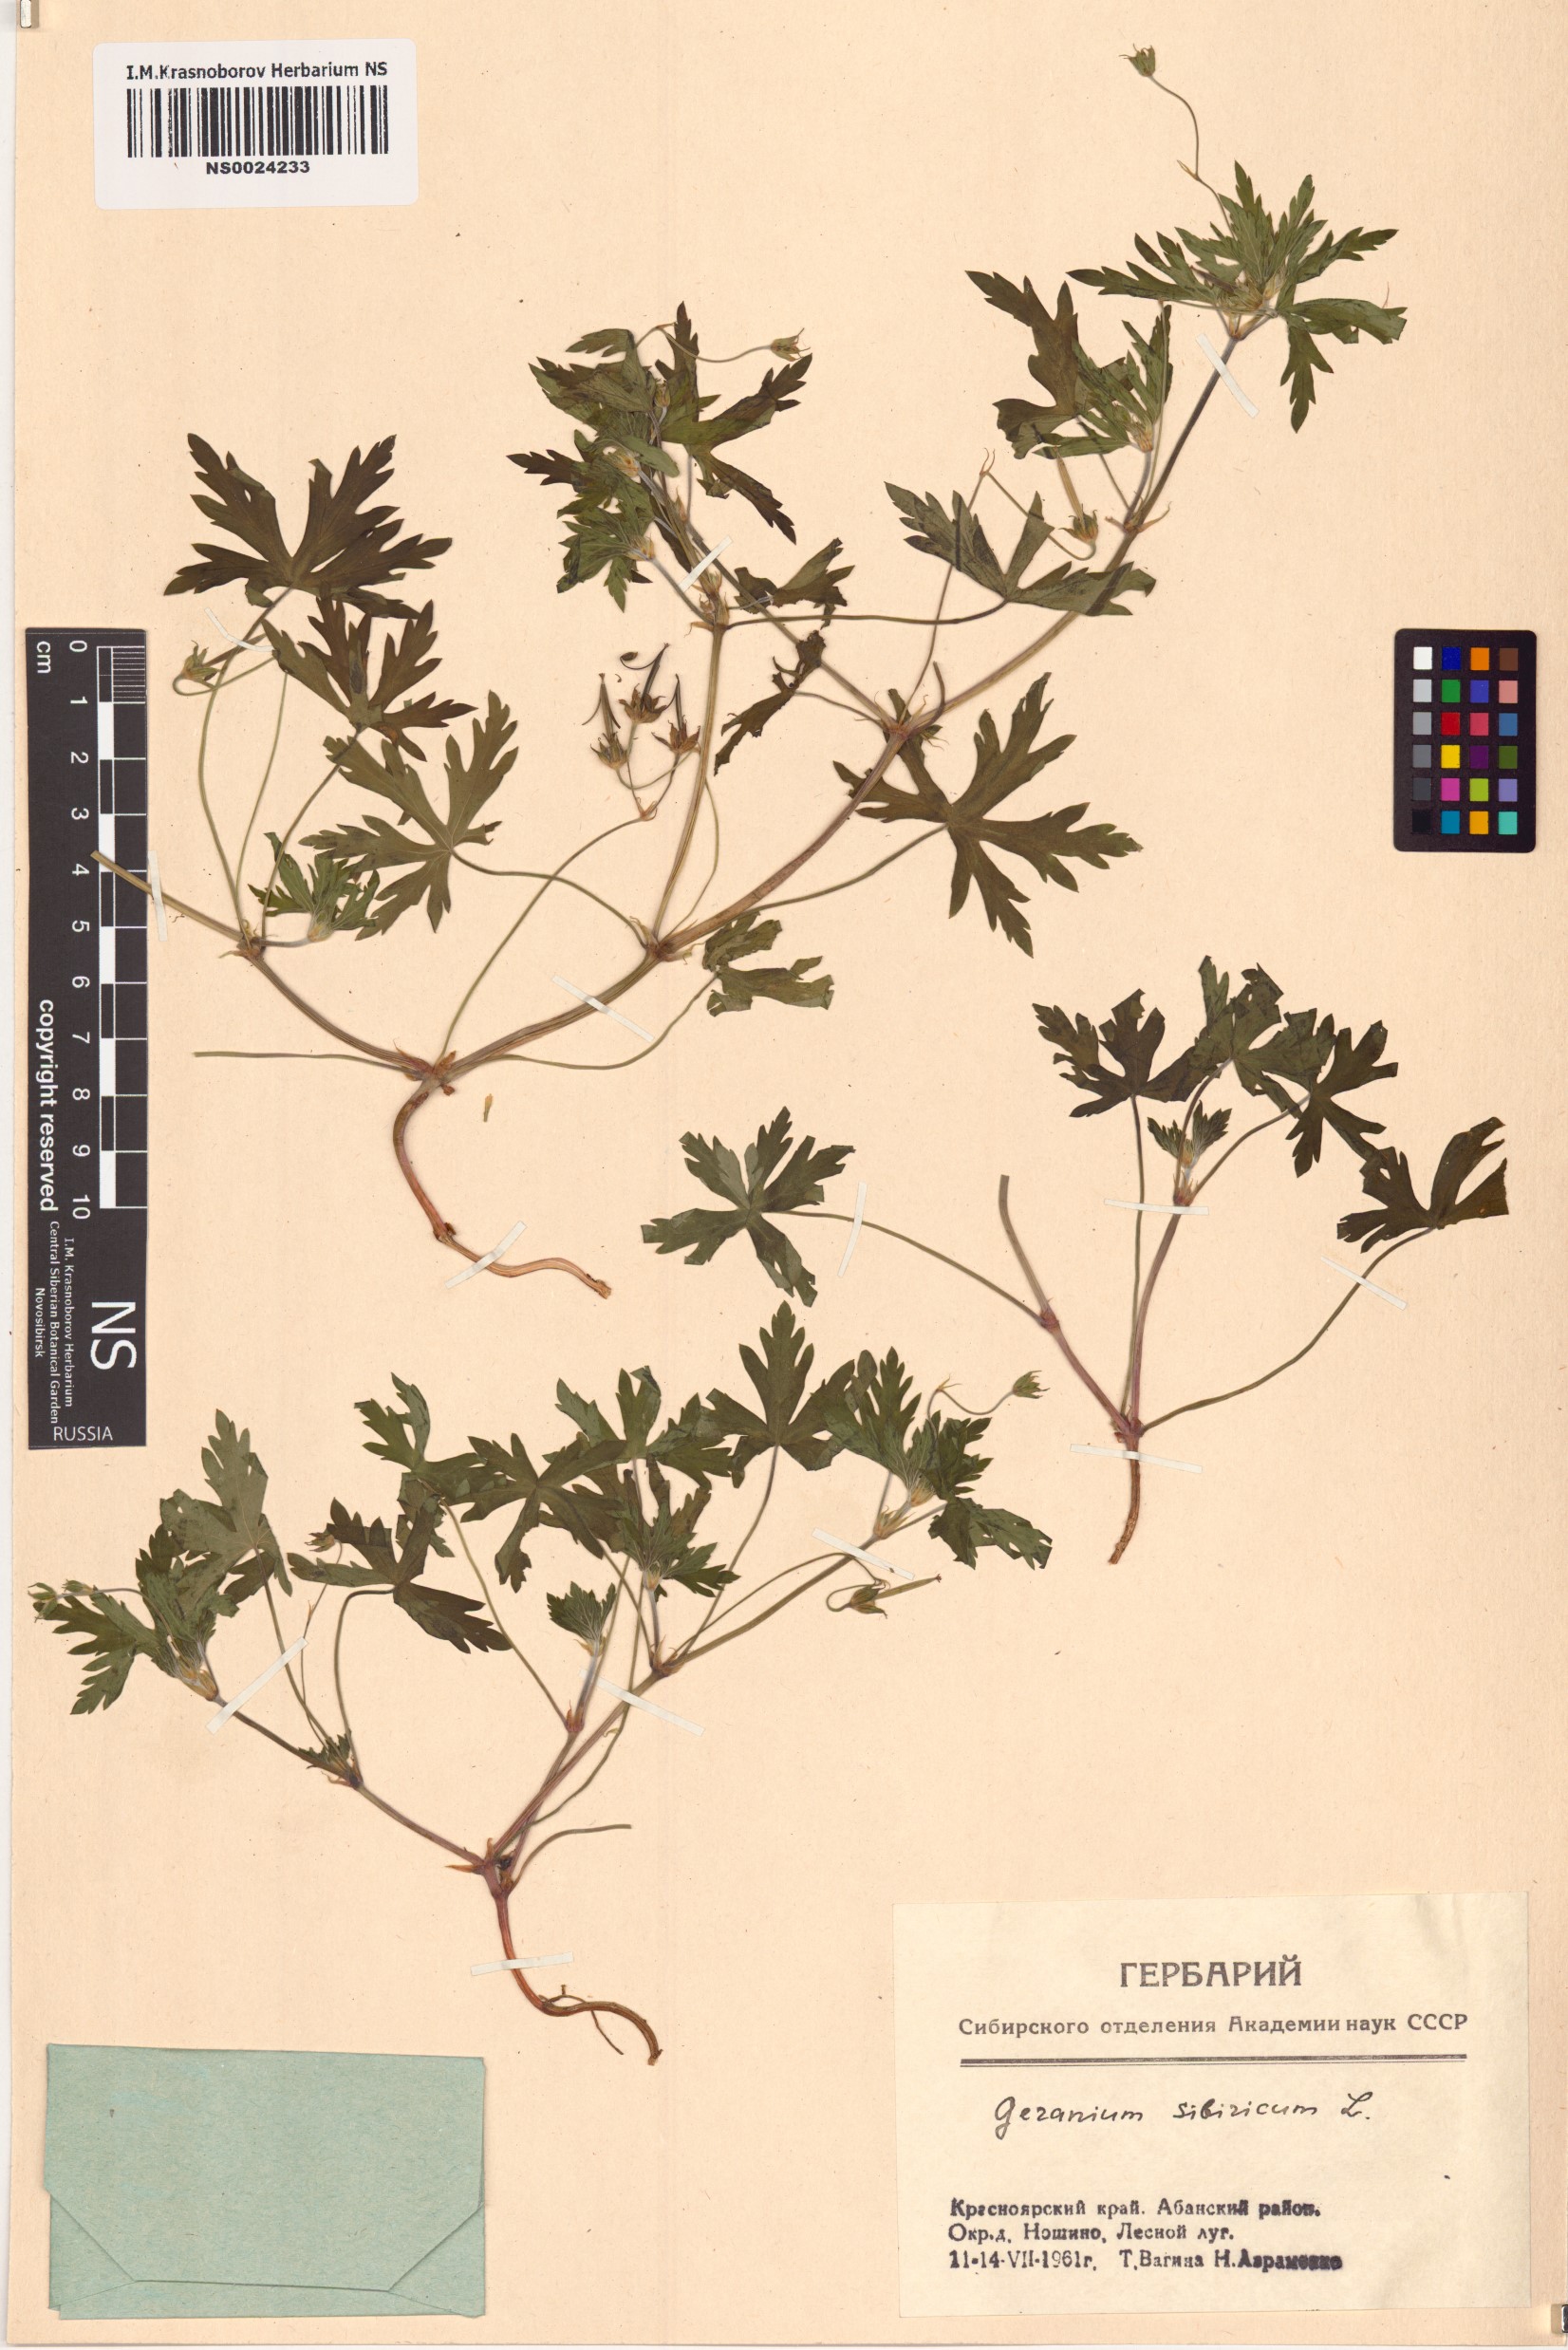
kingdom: Plantae
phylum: Tracheophyta
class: Magnoliopsida
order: Geraniales
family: Geraniaceae
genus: Geranium
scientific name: Geranium sibiricum
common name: Siberian crane's-bill
